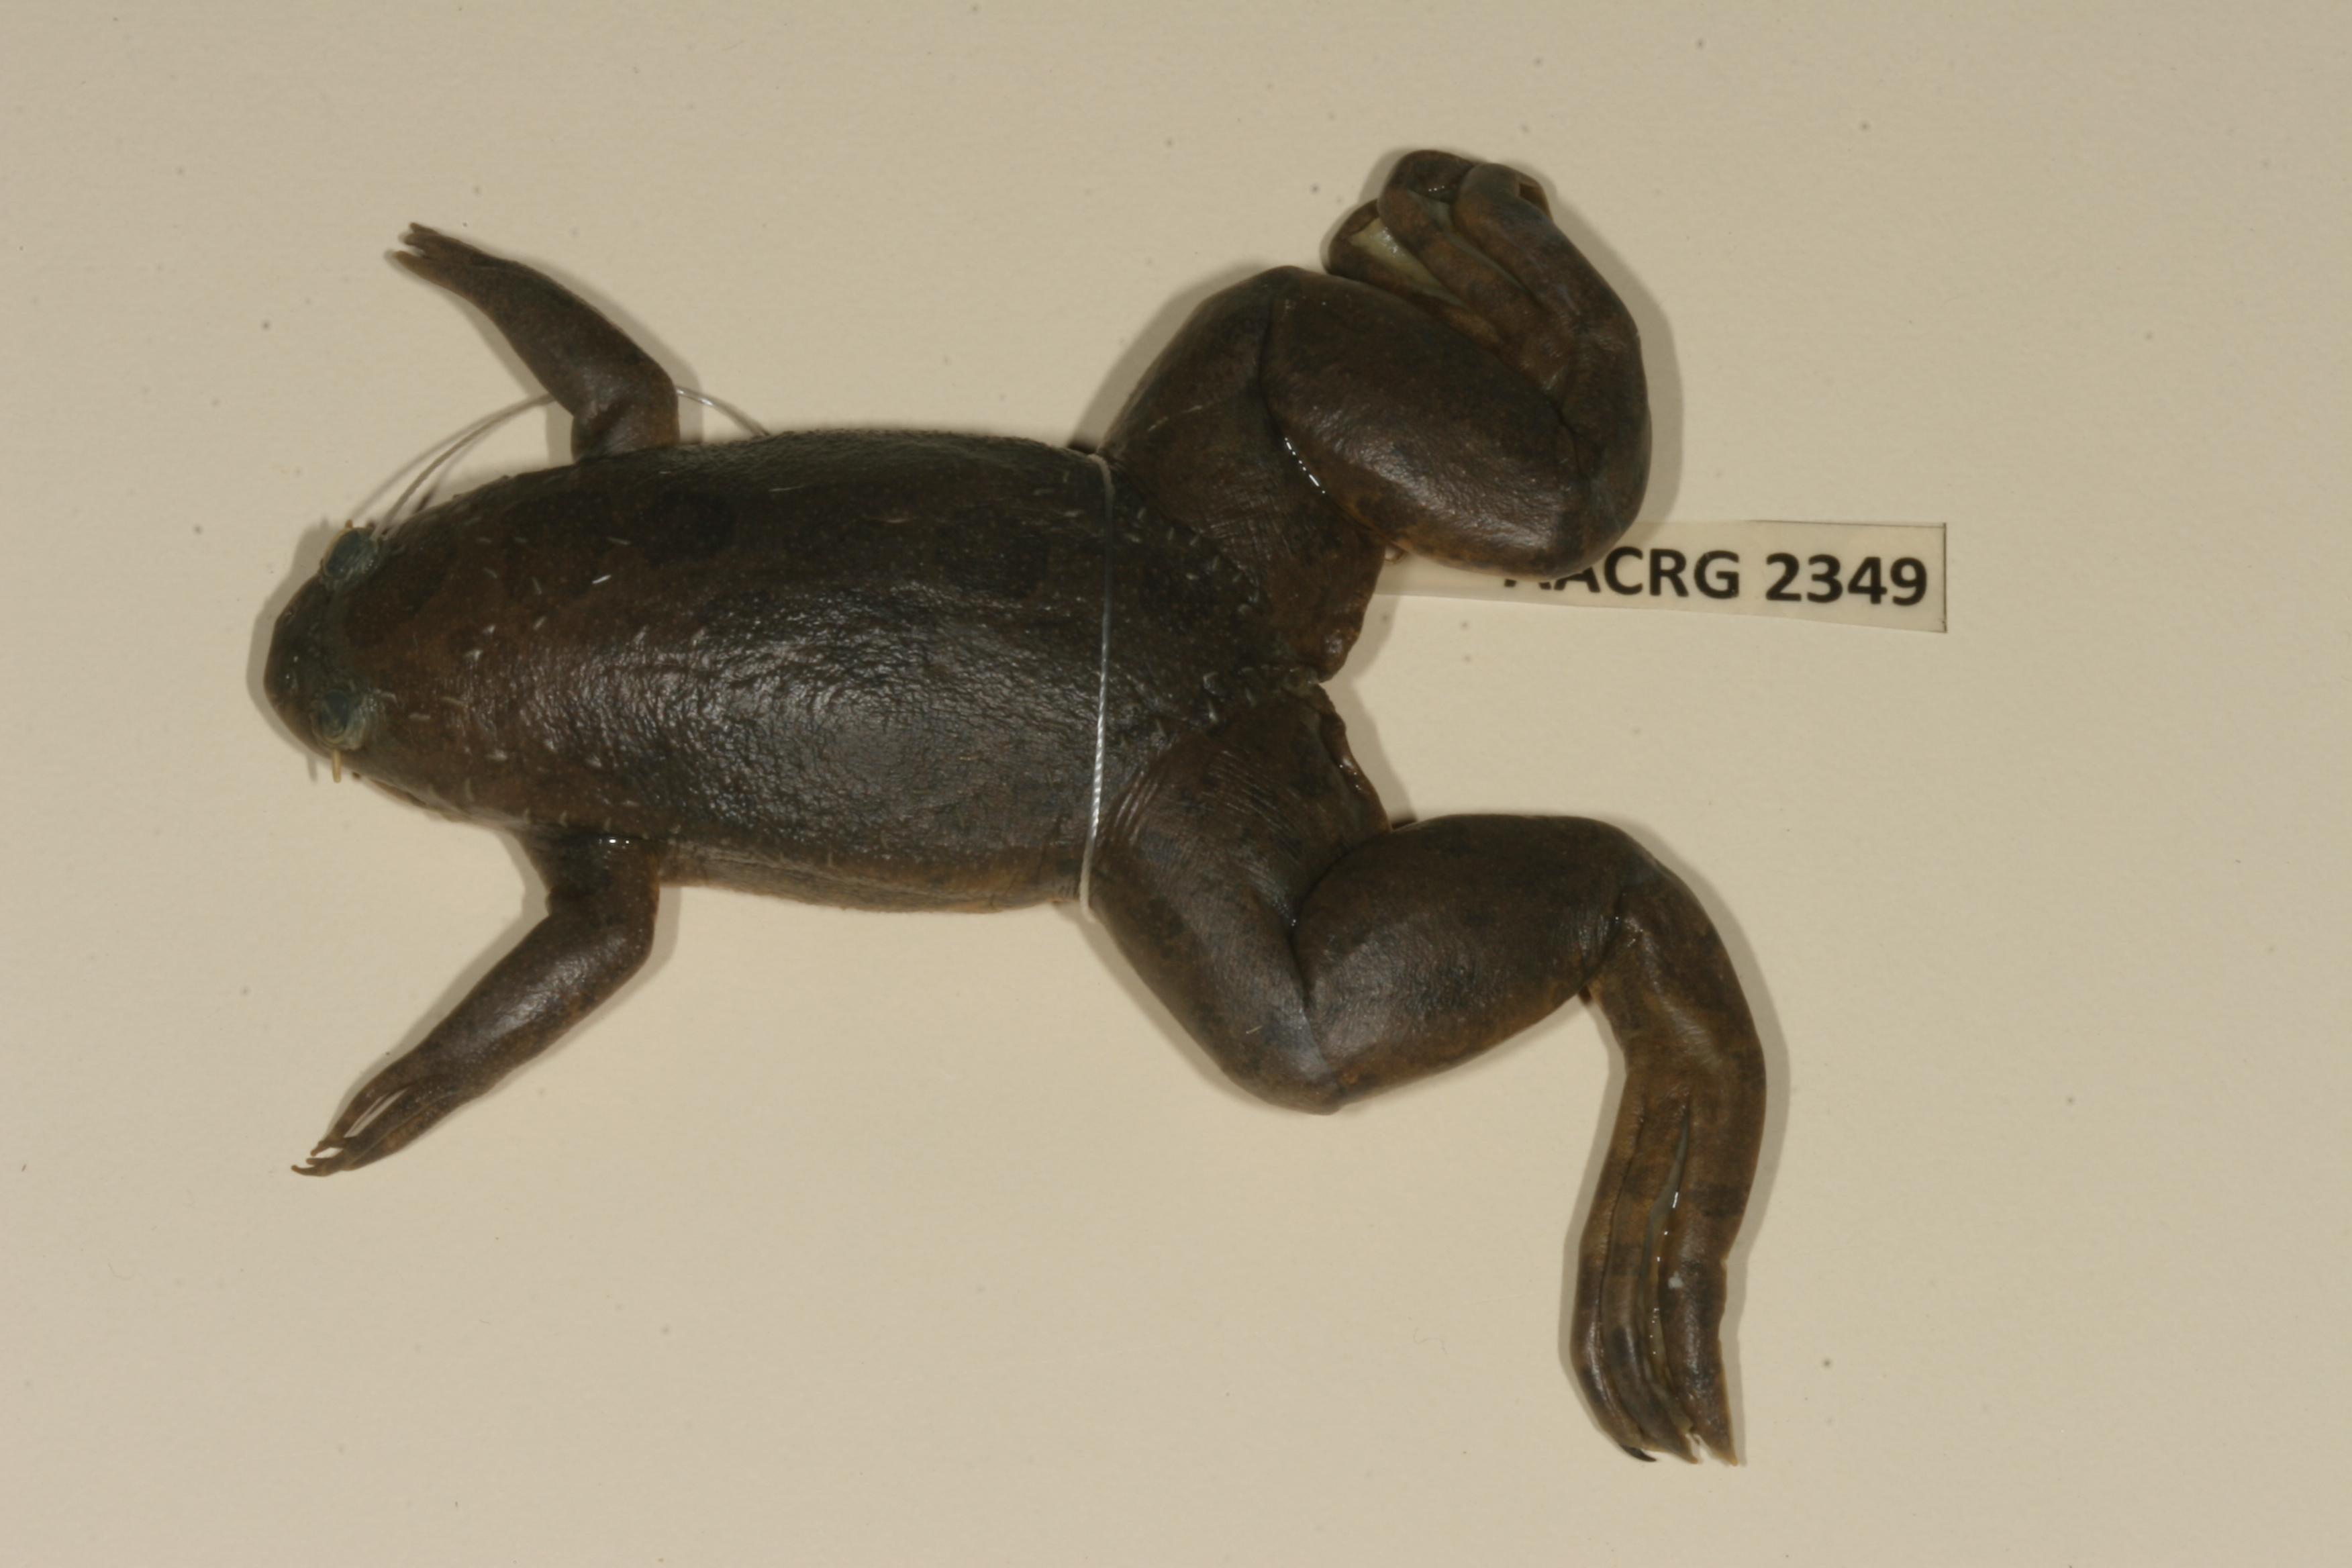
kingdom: Animalia
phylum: Chordata
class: Amphibia
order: Anura
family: Pipidae
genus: Xenopus
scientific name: Xenopus muelleri
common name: Muller's clawed frog
